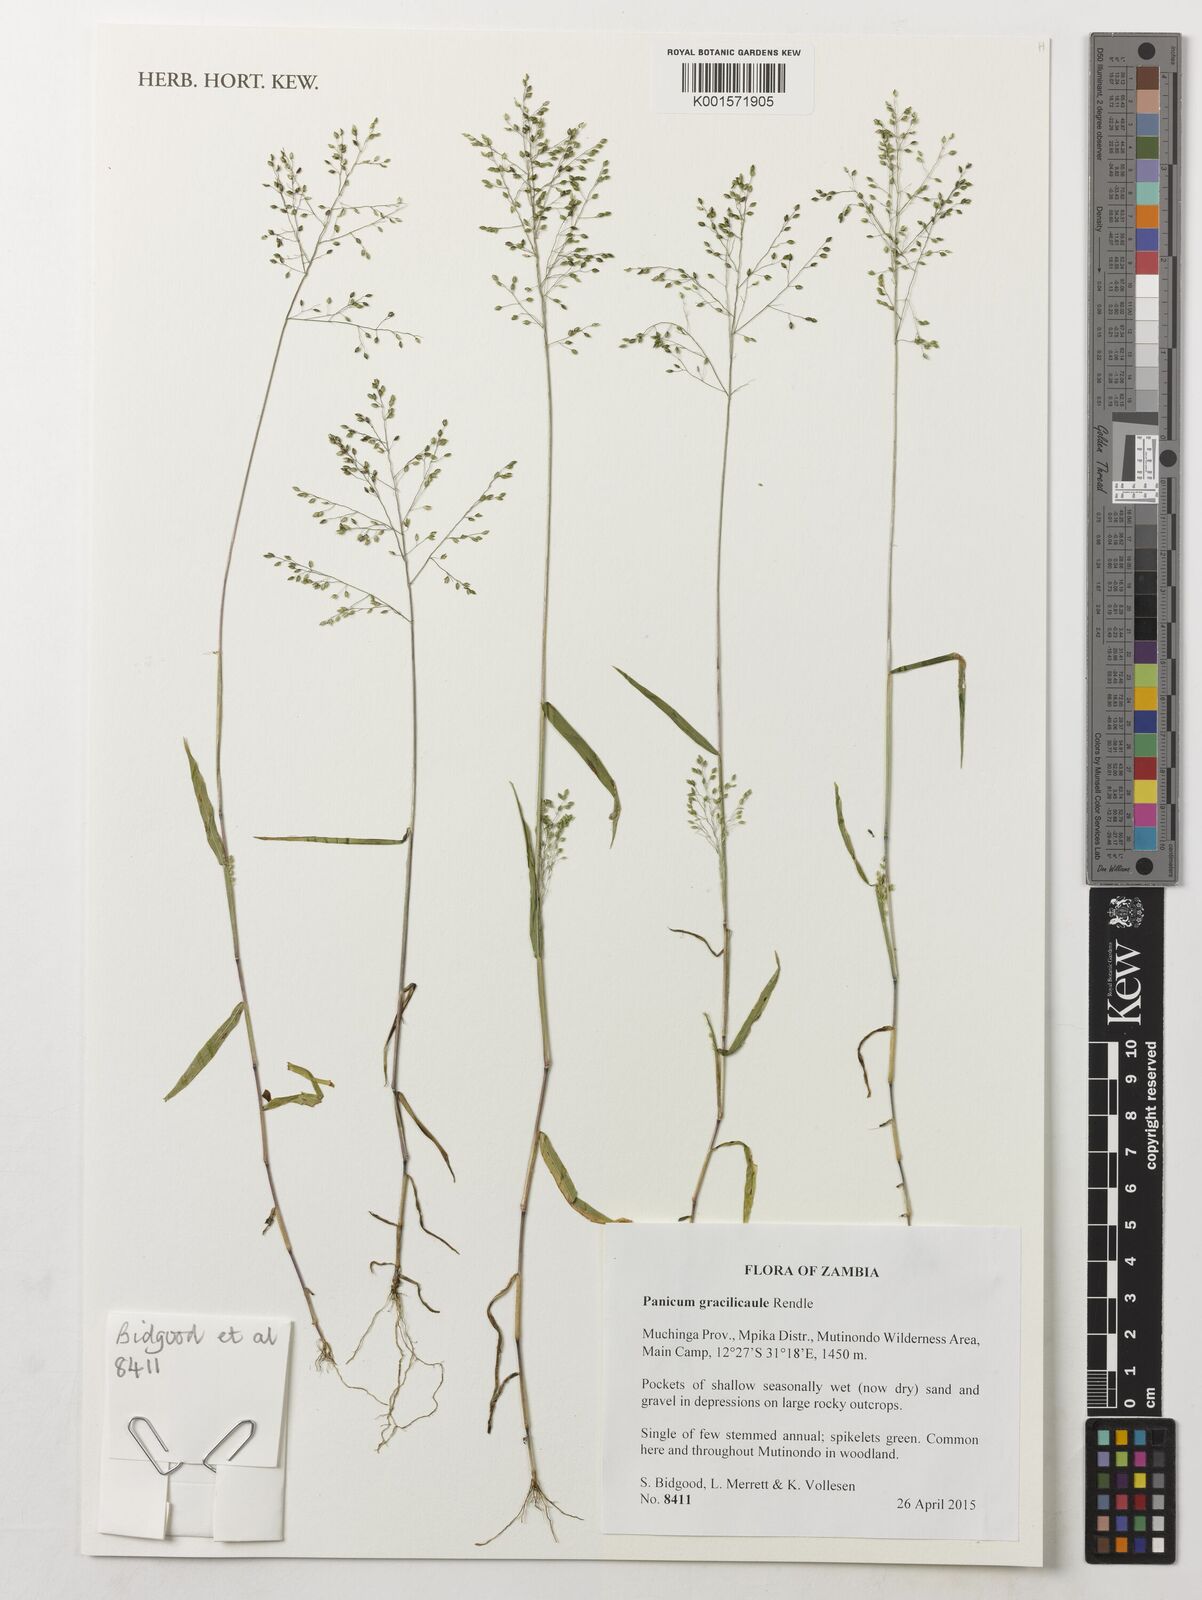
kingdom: Plantae
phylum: Tracheophyta
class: Liliopsida
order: Poales
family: Poaceae
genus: Trichanthecium
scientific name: Trichanthecium gracilicaule
